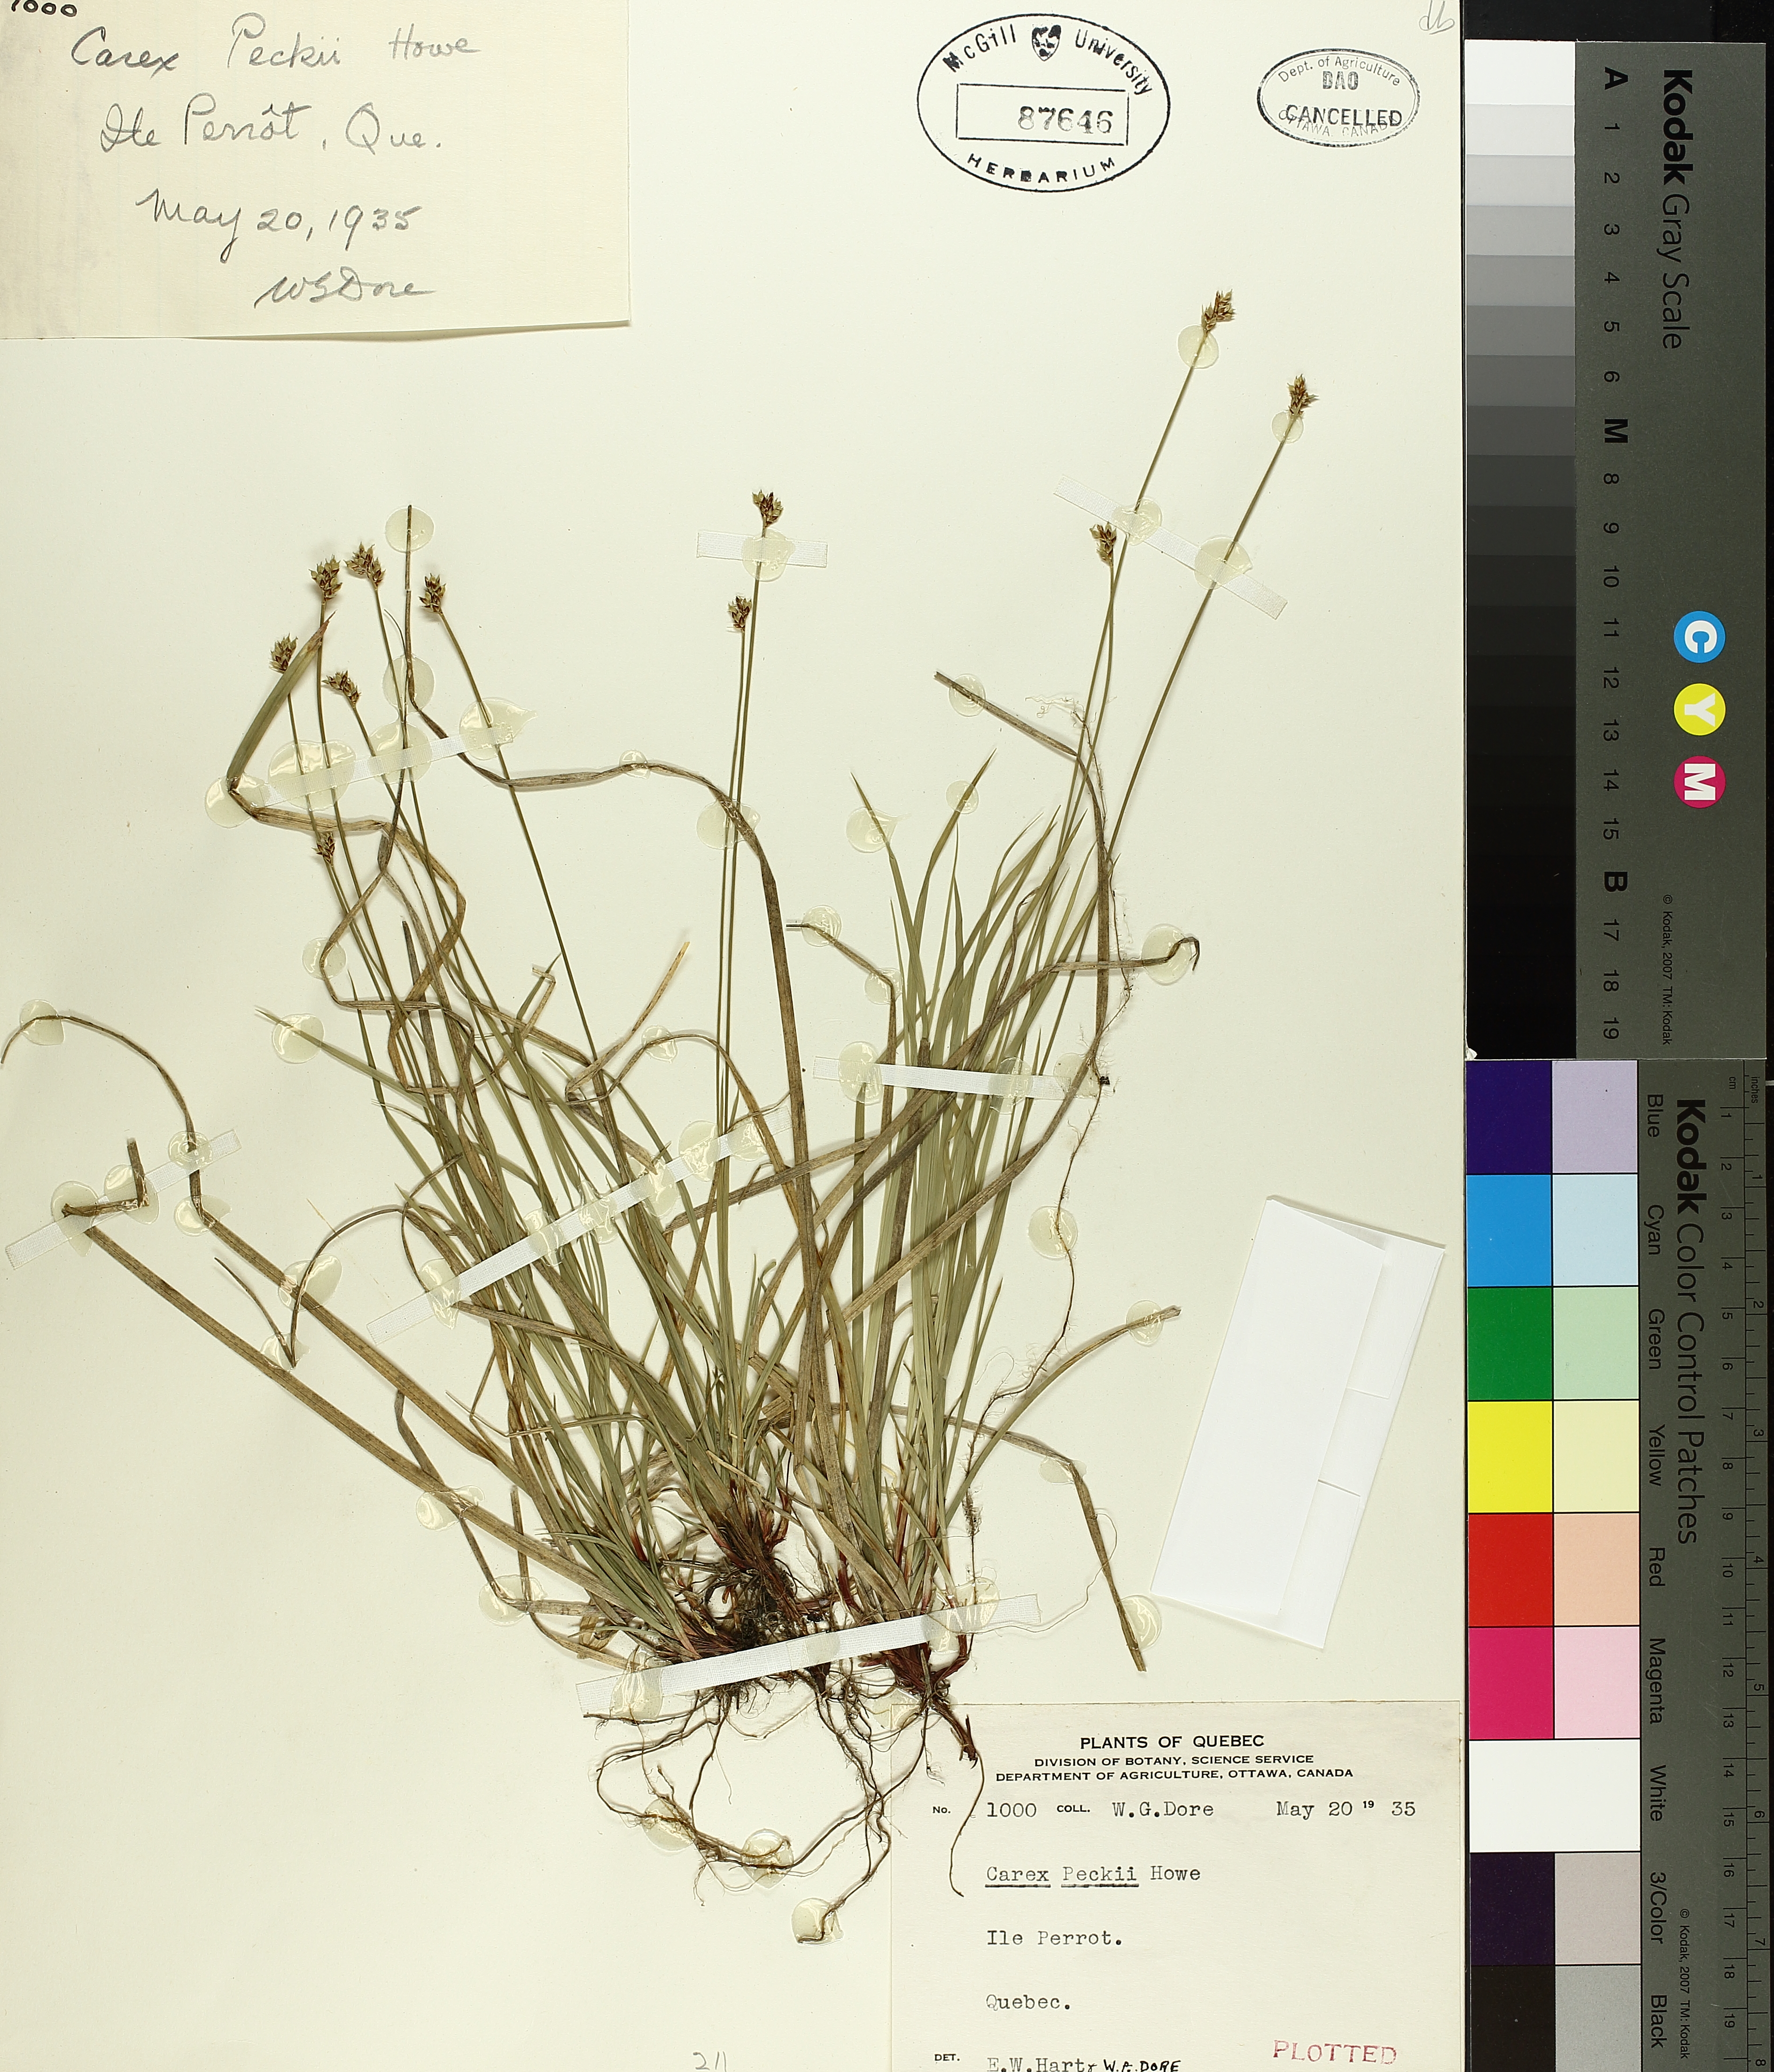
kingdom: Plantae
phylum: Tracheophyta
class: Liliopsida
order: Poales
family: Cyperaceae
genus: Carex
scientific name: Carex peckii
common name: Peck's oak sedge
